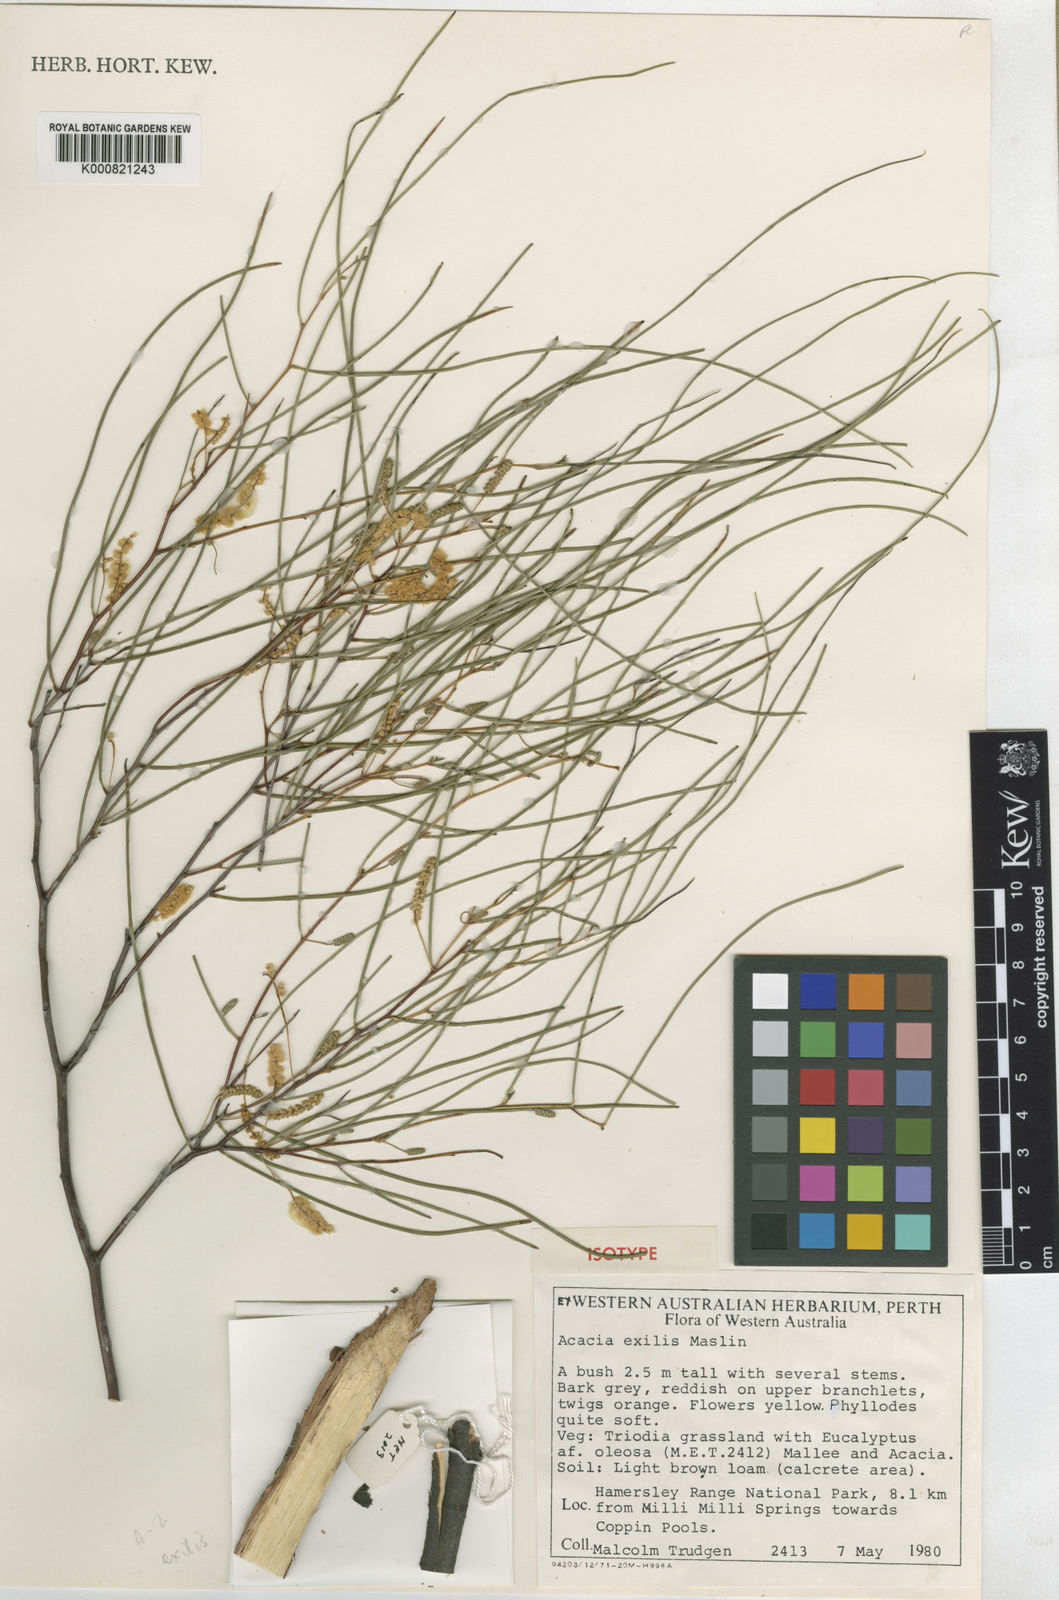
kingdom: Plantae
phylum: Tracheophyta
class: Magnoliopsida
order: Fabales
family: Fabaceae
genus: Acacia
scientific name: Acacia exigua
